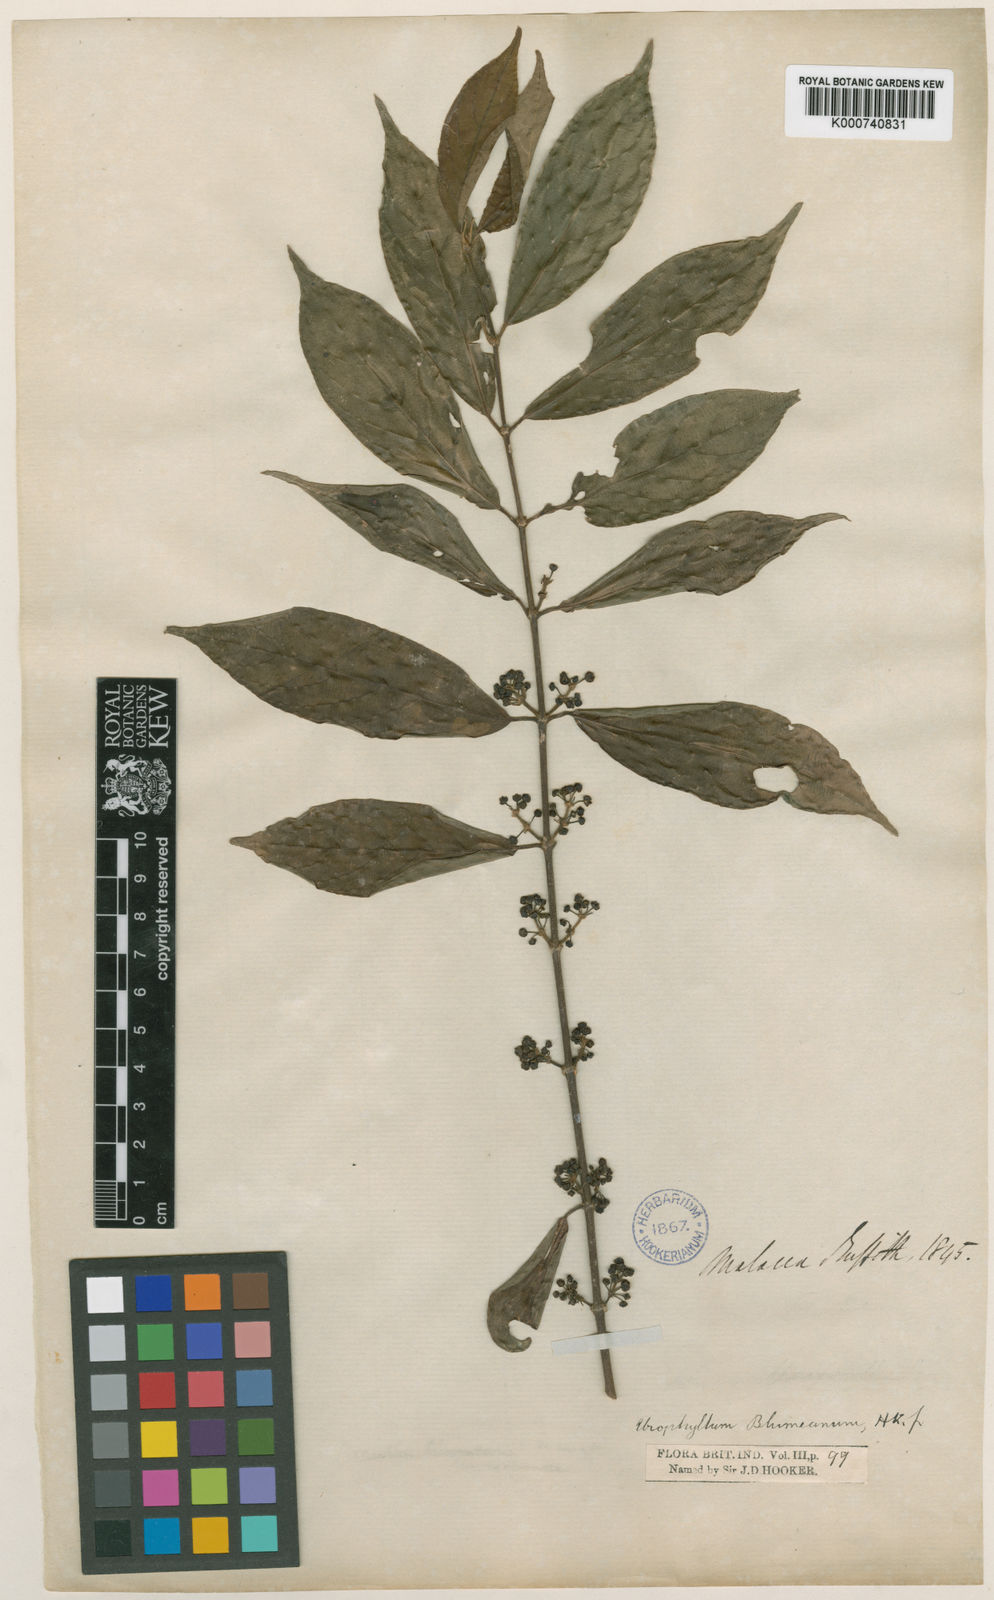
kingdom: Plantae
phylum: Tracheophyta
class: Magnoliopsida
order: Gentianales
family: Rubiaceae
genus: Urophyllum
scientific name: Urophyllum glabrum
